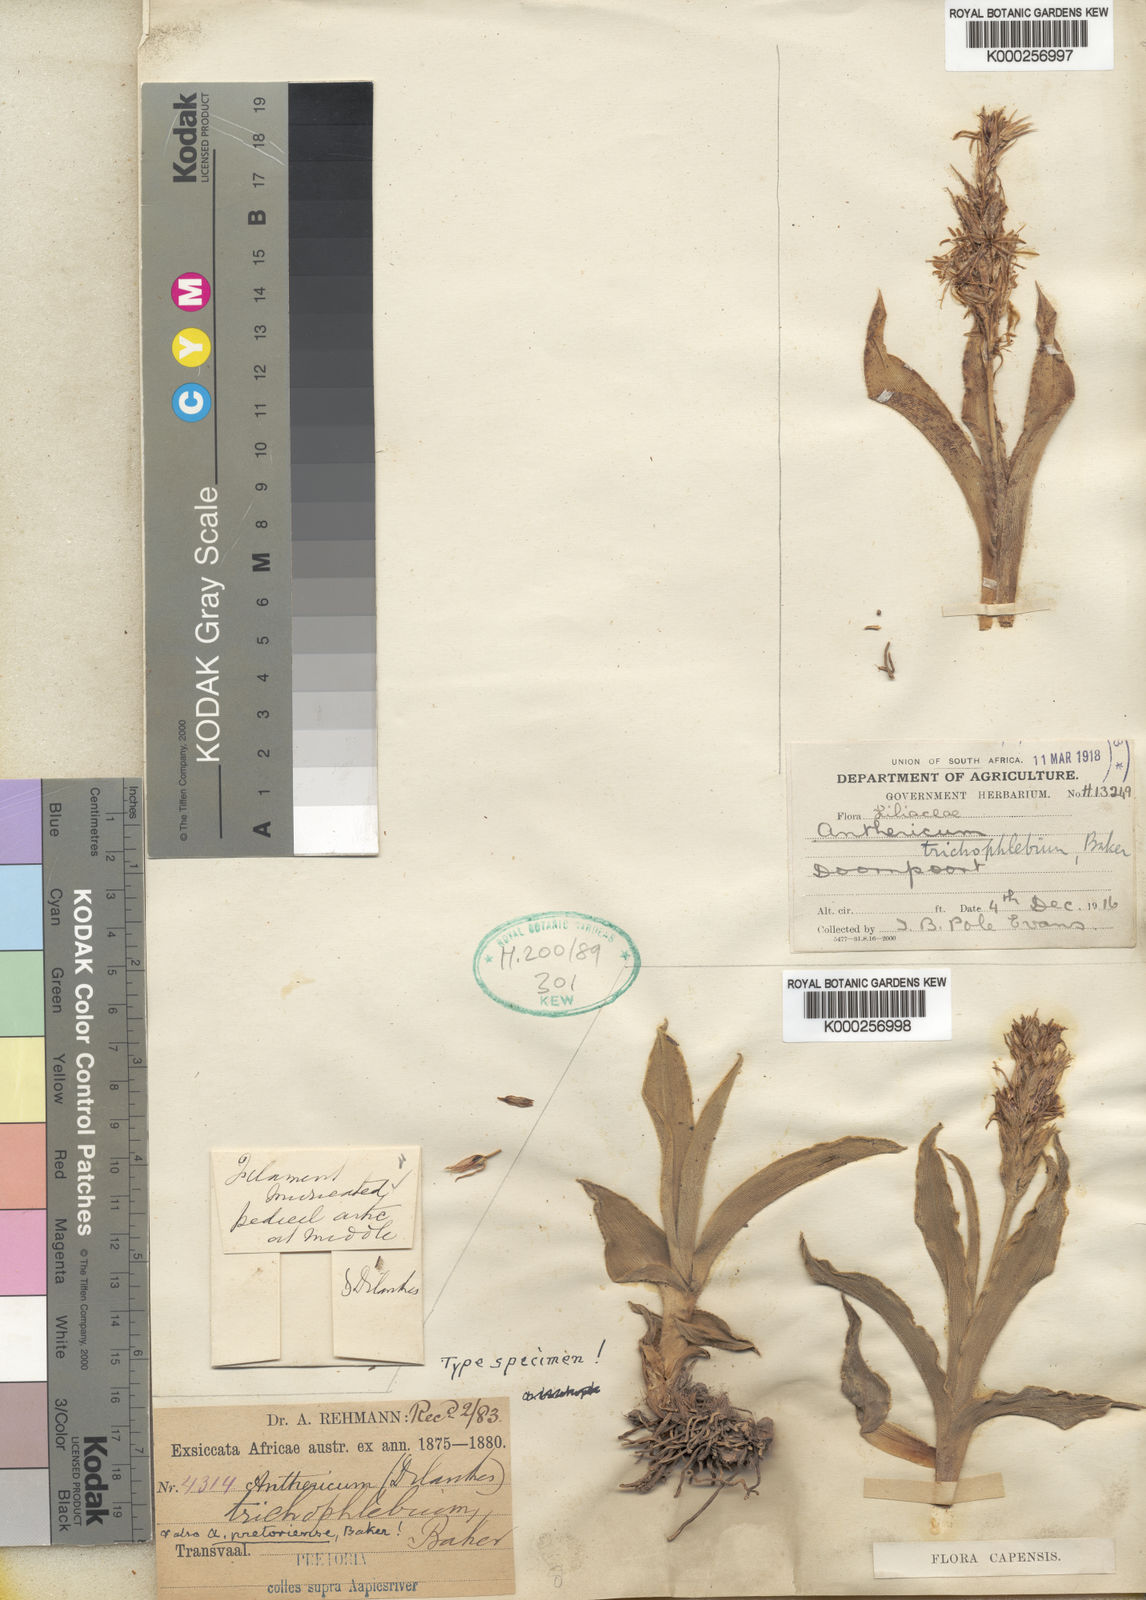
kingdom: Plantae
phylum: Tracheophyta
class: Liliopsida
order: Asparagales
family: Asparagaceae
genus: Chlorophytum
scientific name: Chlorophytum trichophlebium
